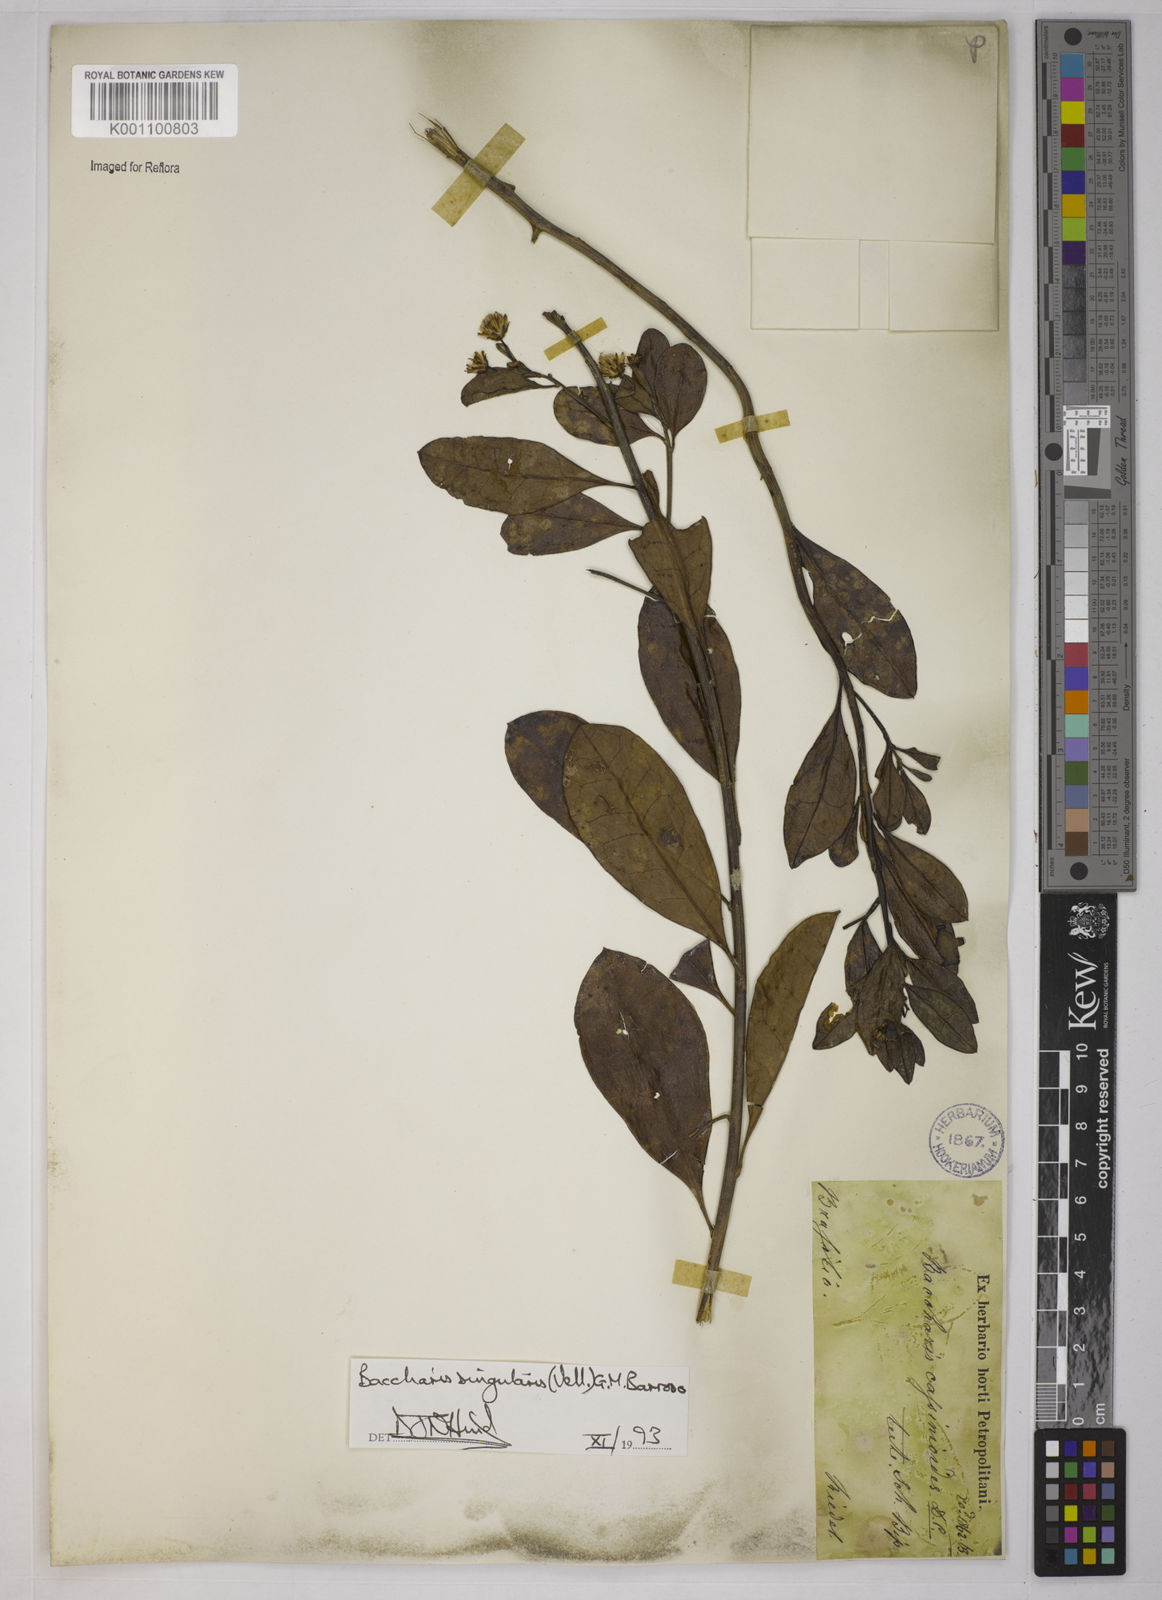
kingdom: Plantae
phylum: Tracheophyta
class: Magnoliopsida
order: Asterales
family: Asteraceae
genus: Baccharis
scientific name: Baccharis
